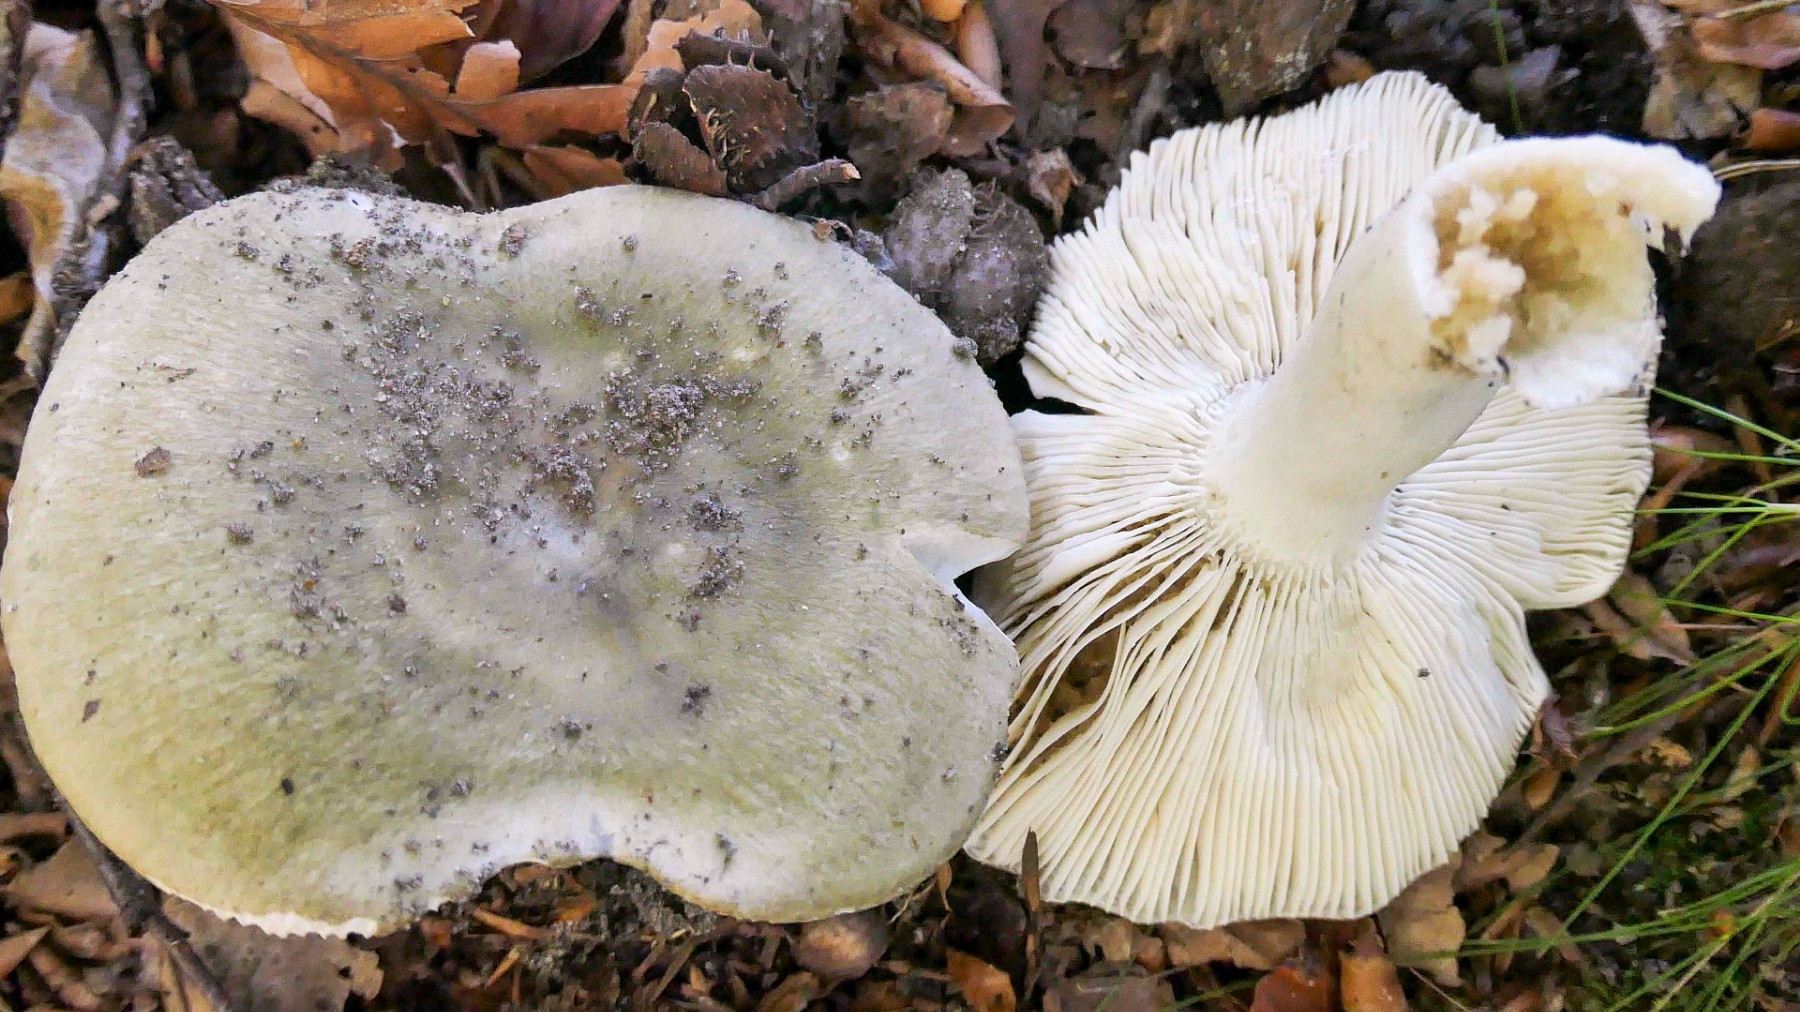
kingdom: Fungi
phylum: Basidiomycota
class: Agaricomycetes
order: Russulales
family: Russulaceae
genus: Russula
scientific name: Russula heterophylla
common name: gaffelbladet skørhat
